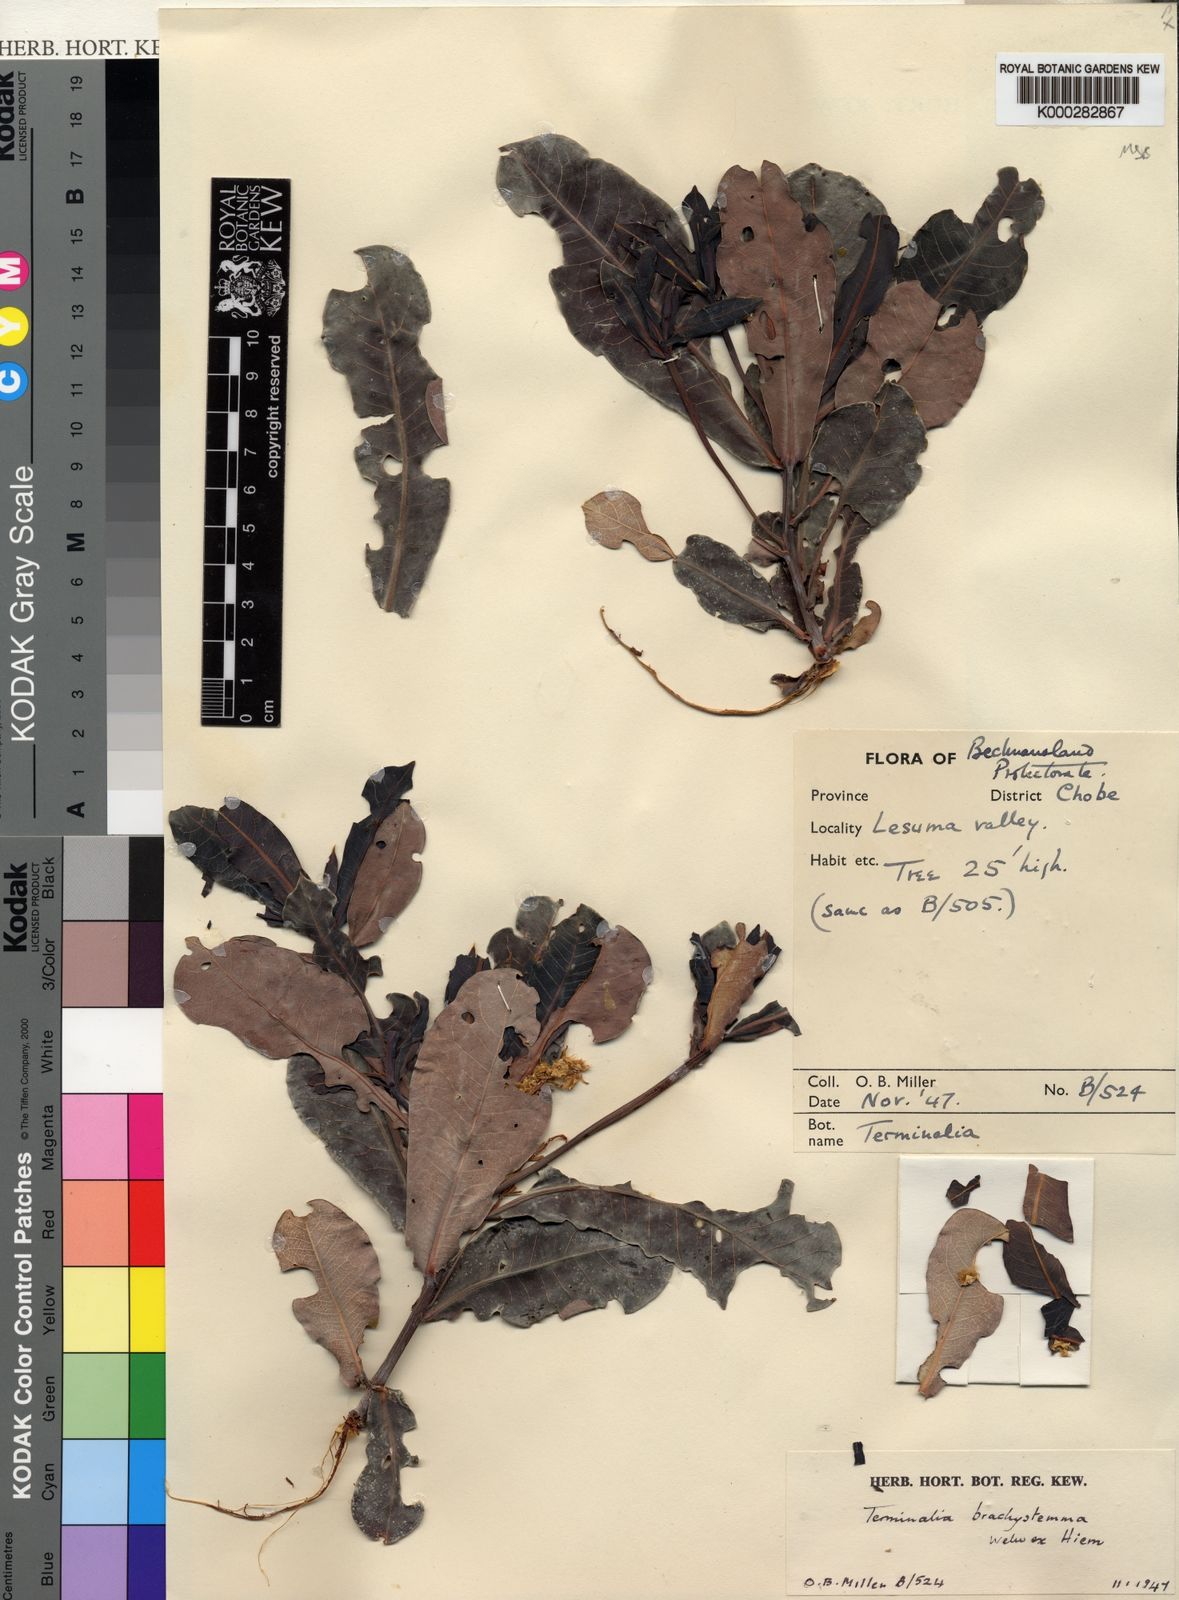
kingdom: Plantae
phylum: Tracheophyta
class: Magnoliopsida
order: Myrtales
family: Combretaceae
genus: Terminalia
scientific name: Terminalia brachystemma
